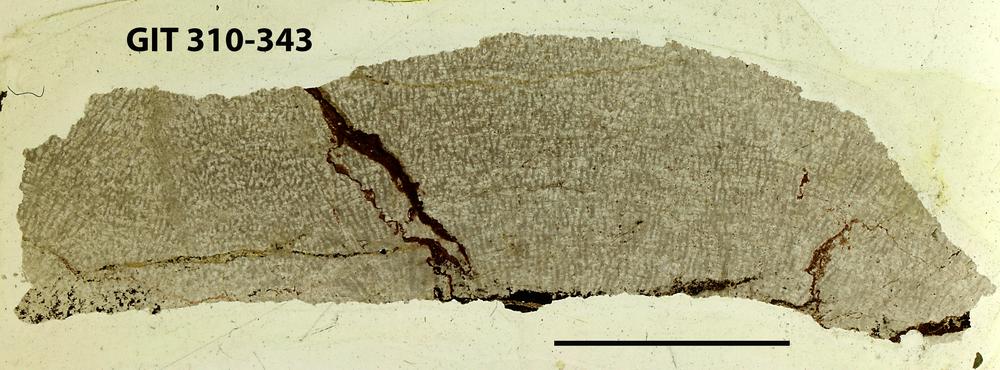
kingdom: Animalia
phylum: Porifera
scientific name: Porifera
